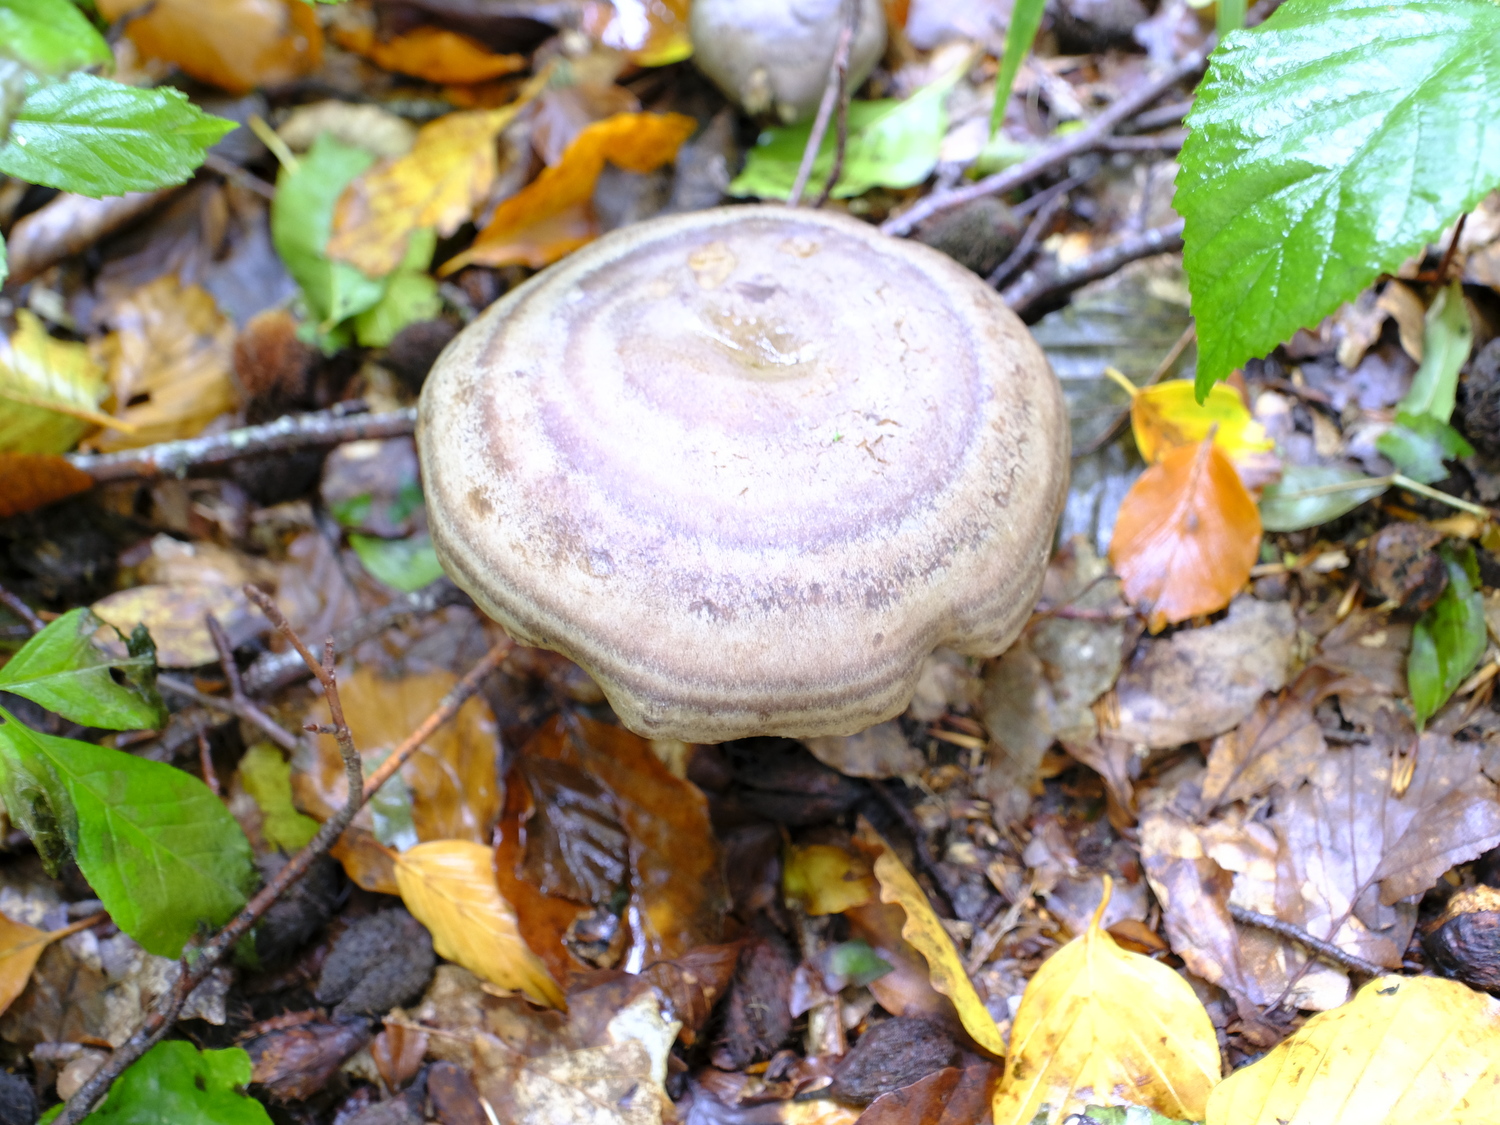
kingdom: Fungi
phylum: Basidiomycota
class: Agaricomycetes
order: Russulales
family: Russulaceae
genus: Lactarius
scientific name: Lactarius fluens
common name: lysrandet mælkehat
